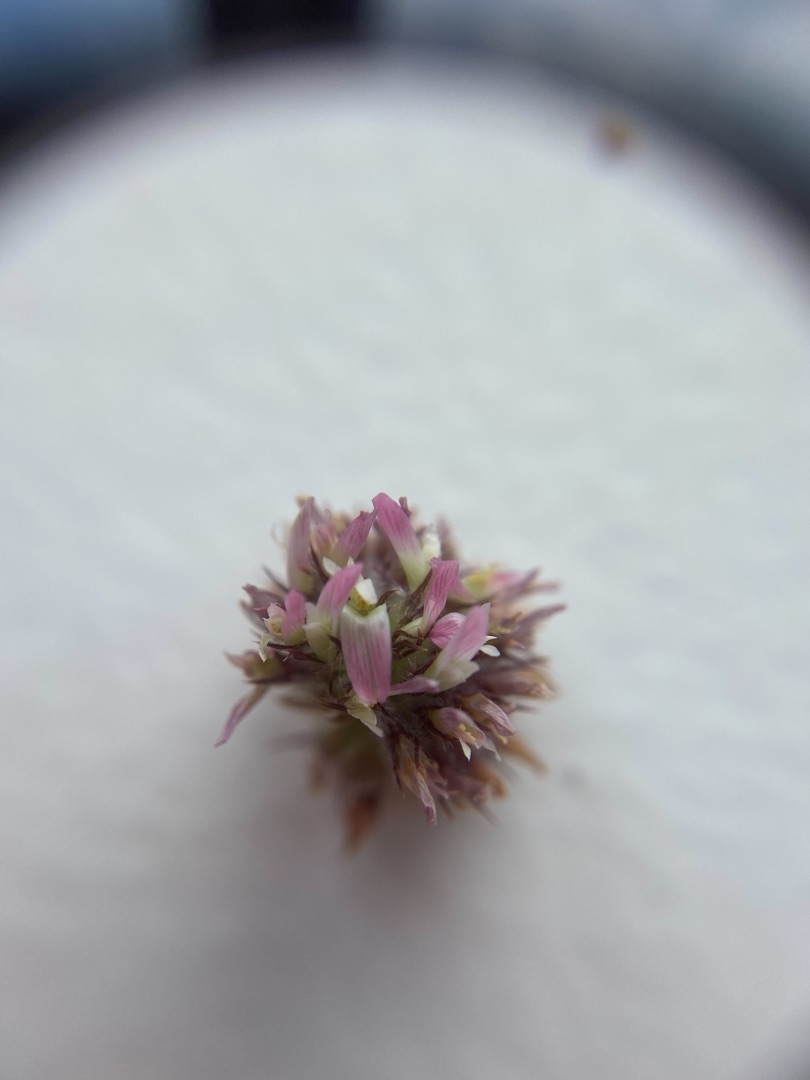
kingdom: Plantae
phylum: Tracheophyta
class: Magnoliopsida
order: Fabales
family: Fabaceae
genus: Trifolium
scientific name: Trifolium fragiferum
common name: Jordbær-kløver
